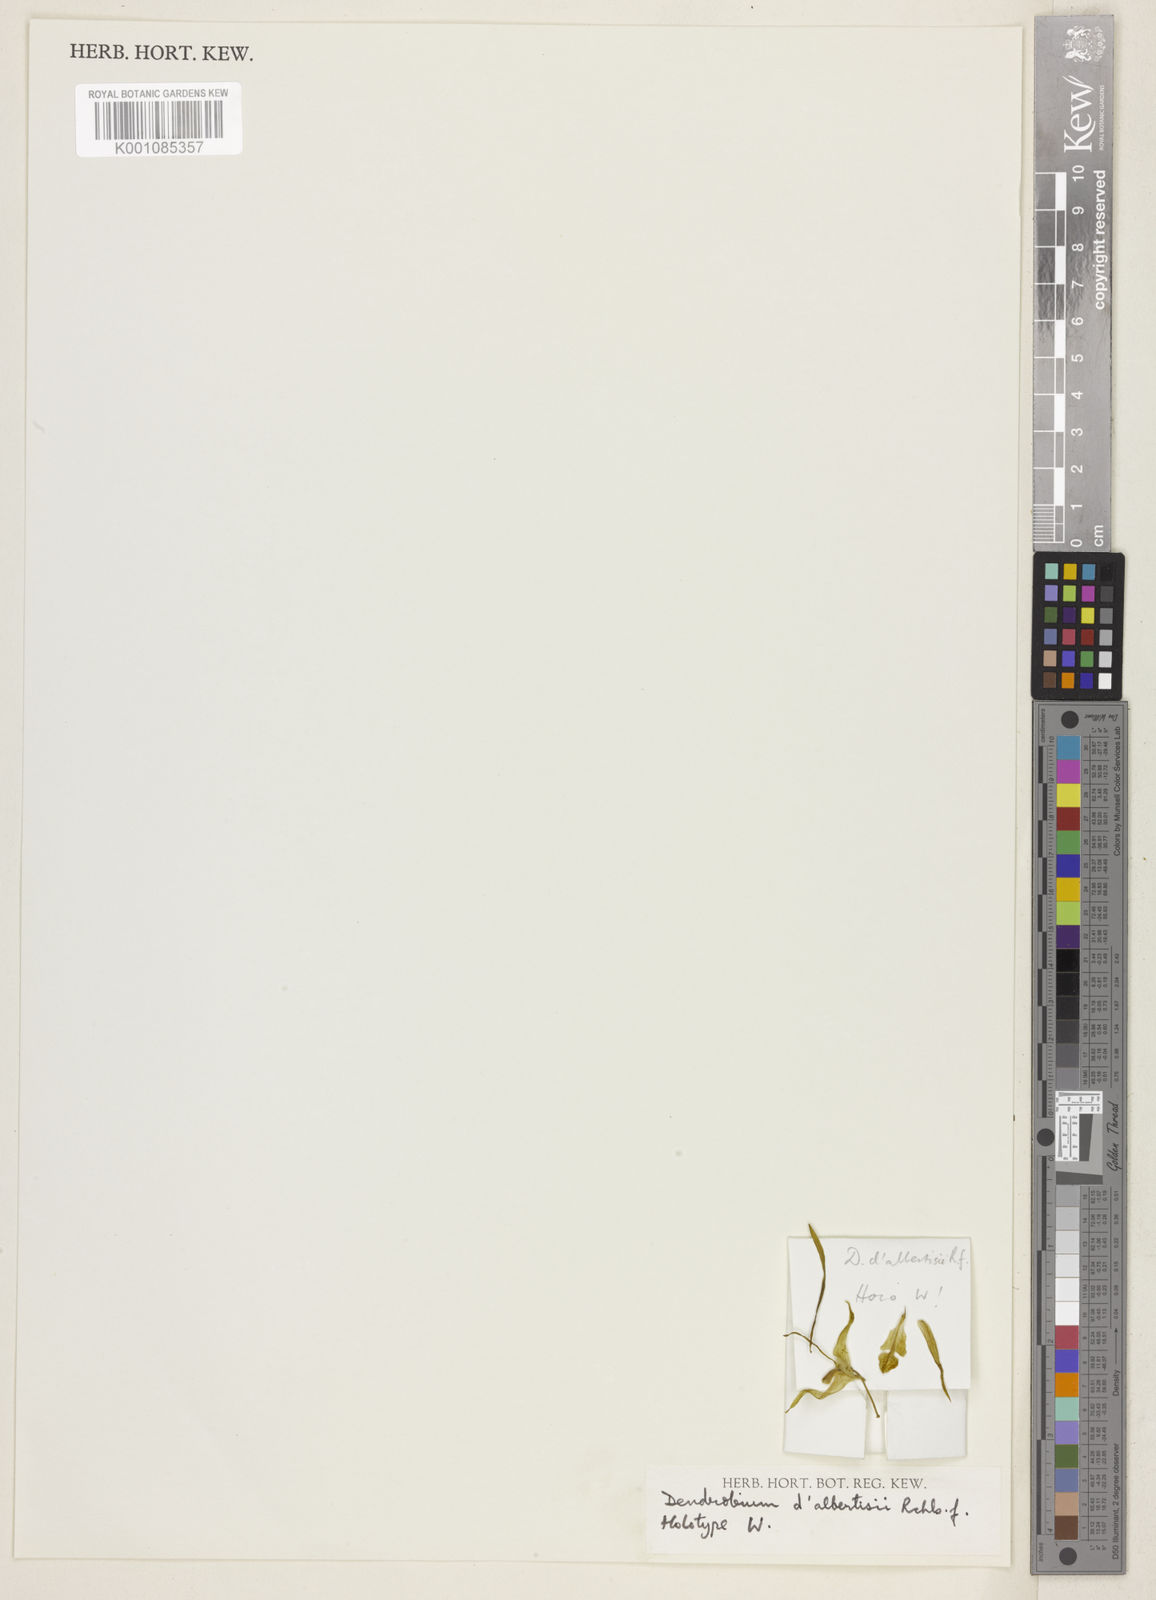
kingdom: Plantae
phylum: Tracheophyta
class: Liliopsida
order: Asparagales
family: Orchidaceae
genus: Dendrobium
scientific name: Dendrobium antennatum
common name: Green antelope orchid
